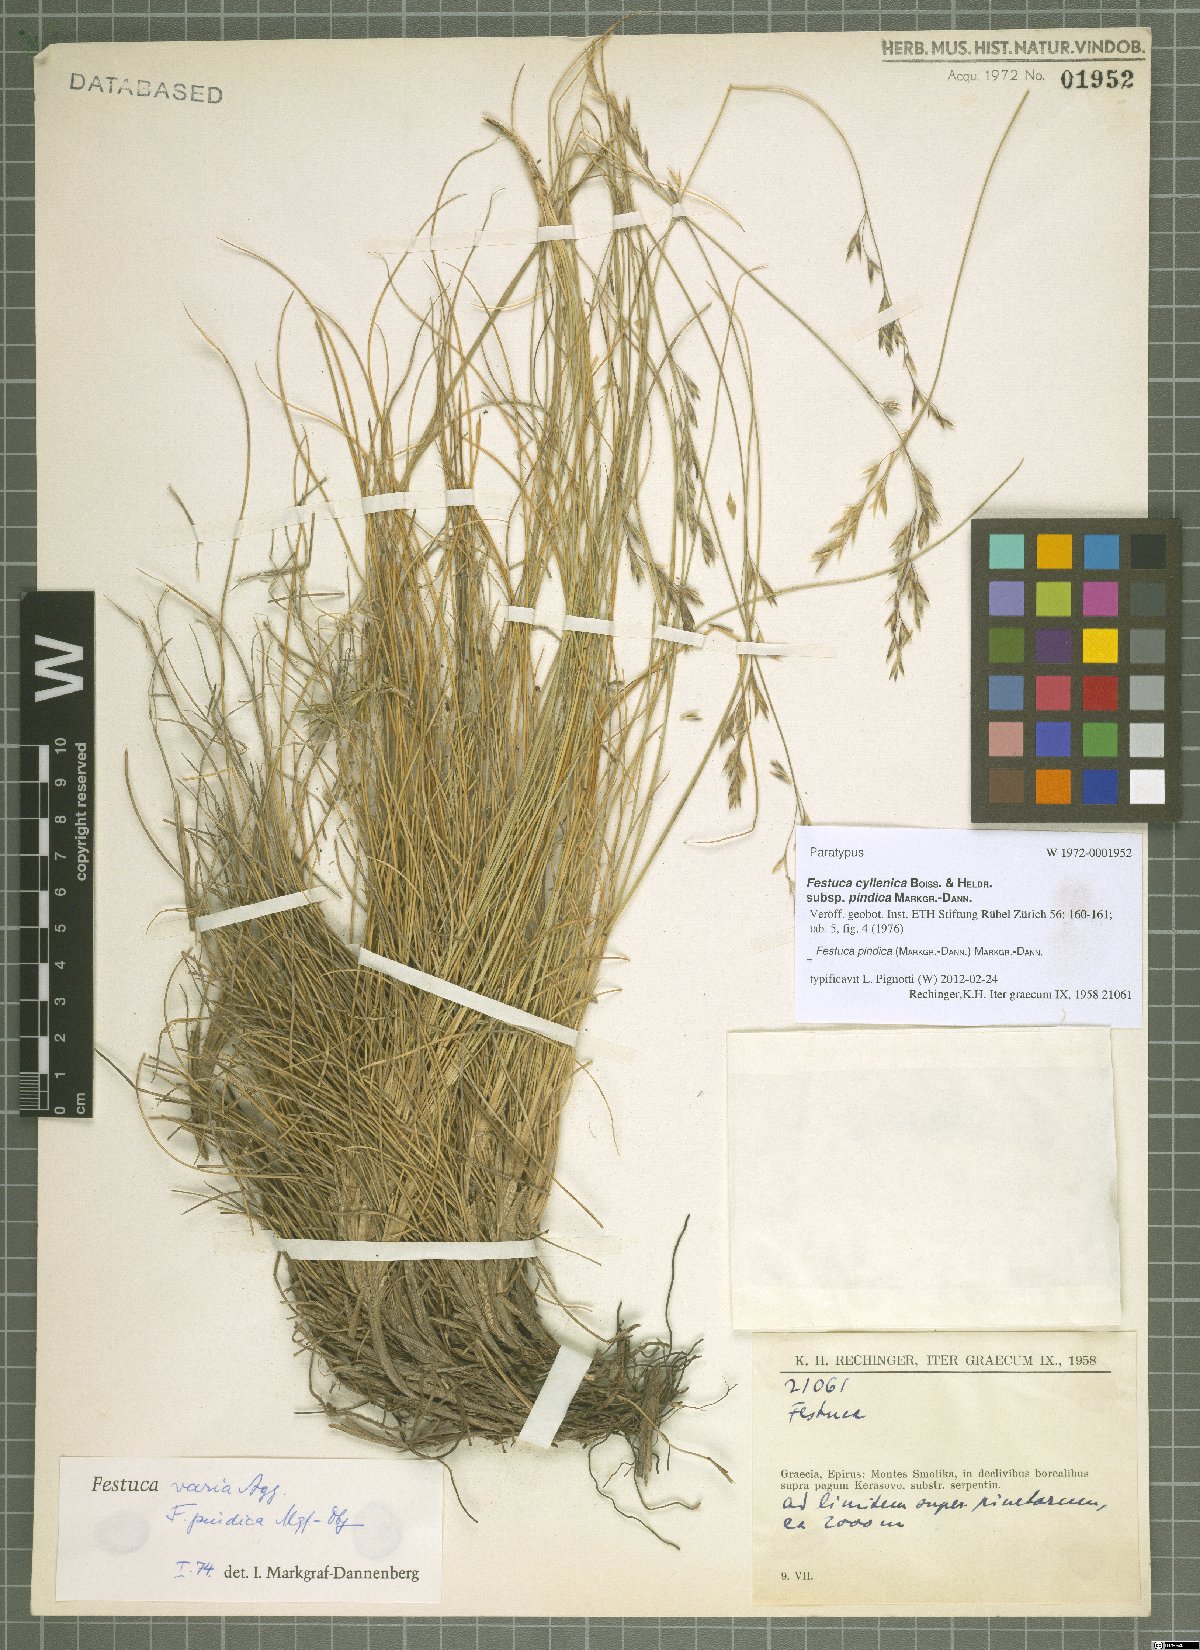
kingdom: Plantae
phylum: Tracheophyta
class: Liliopsida
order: Poales
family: Poaceae
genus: Festuca
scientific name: Festuca pindica
